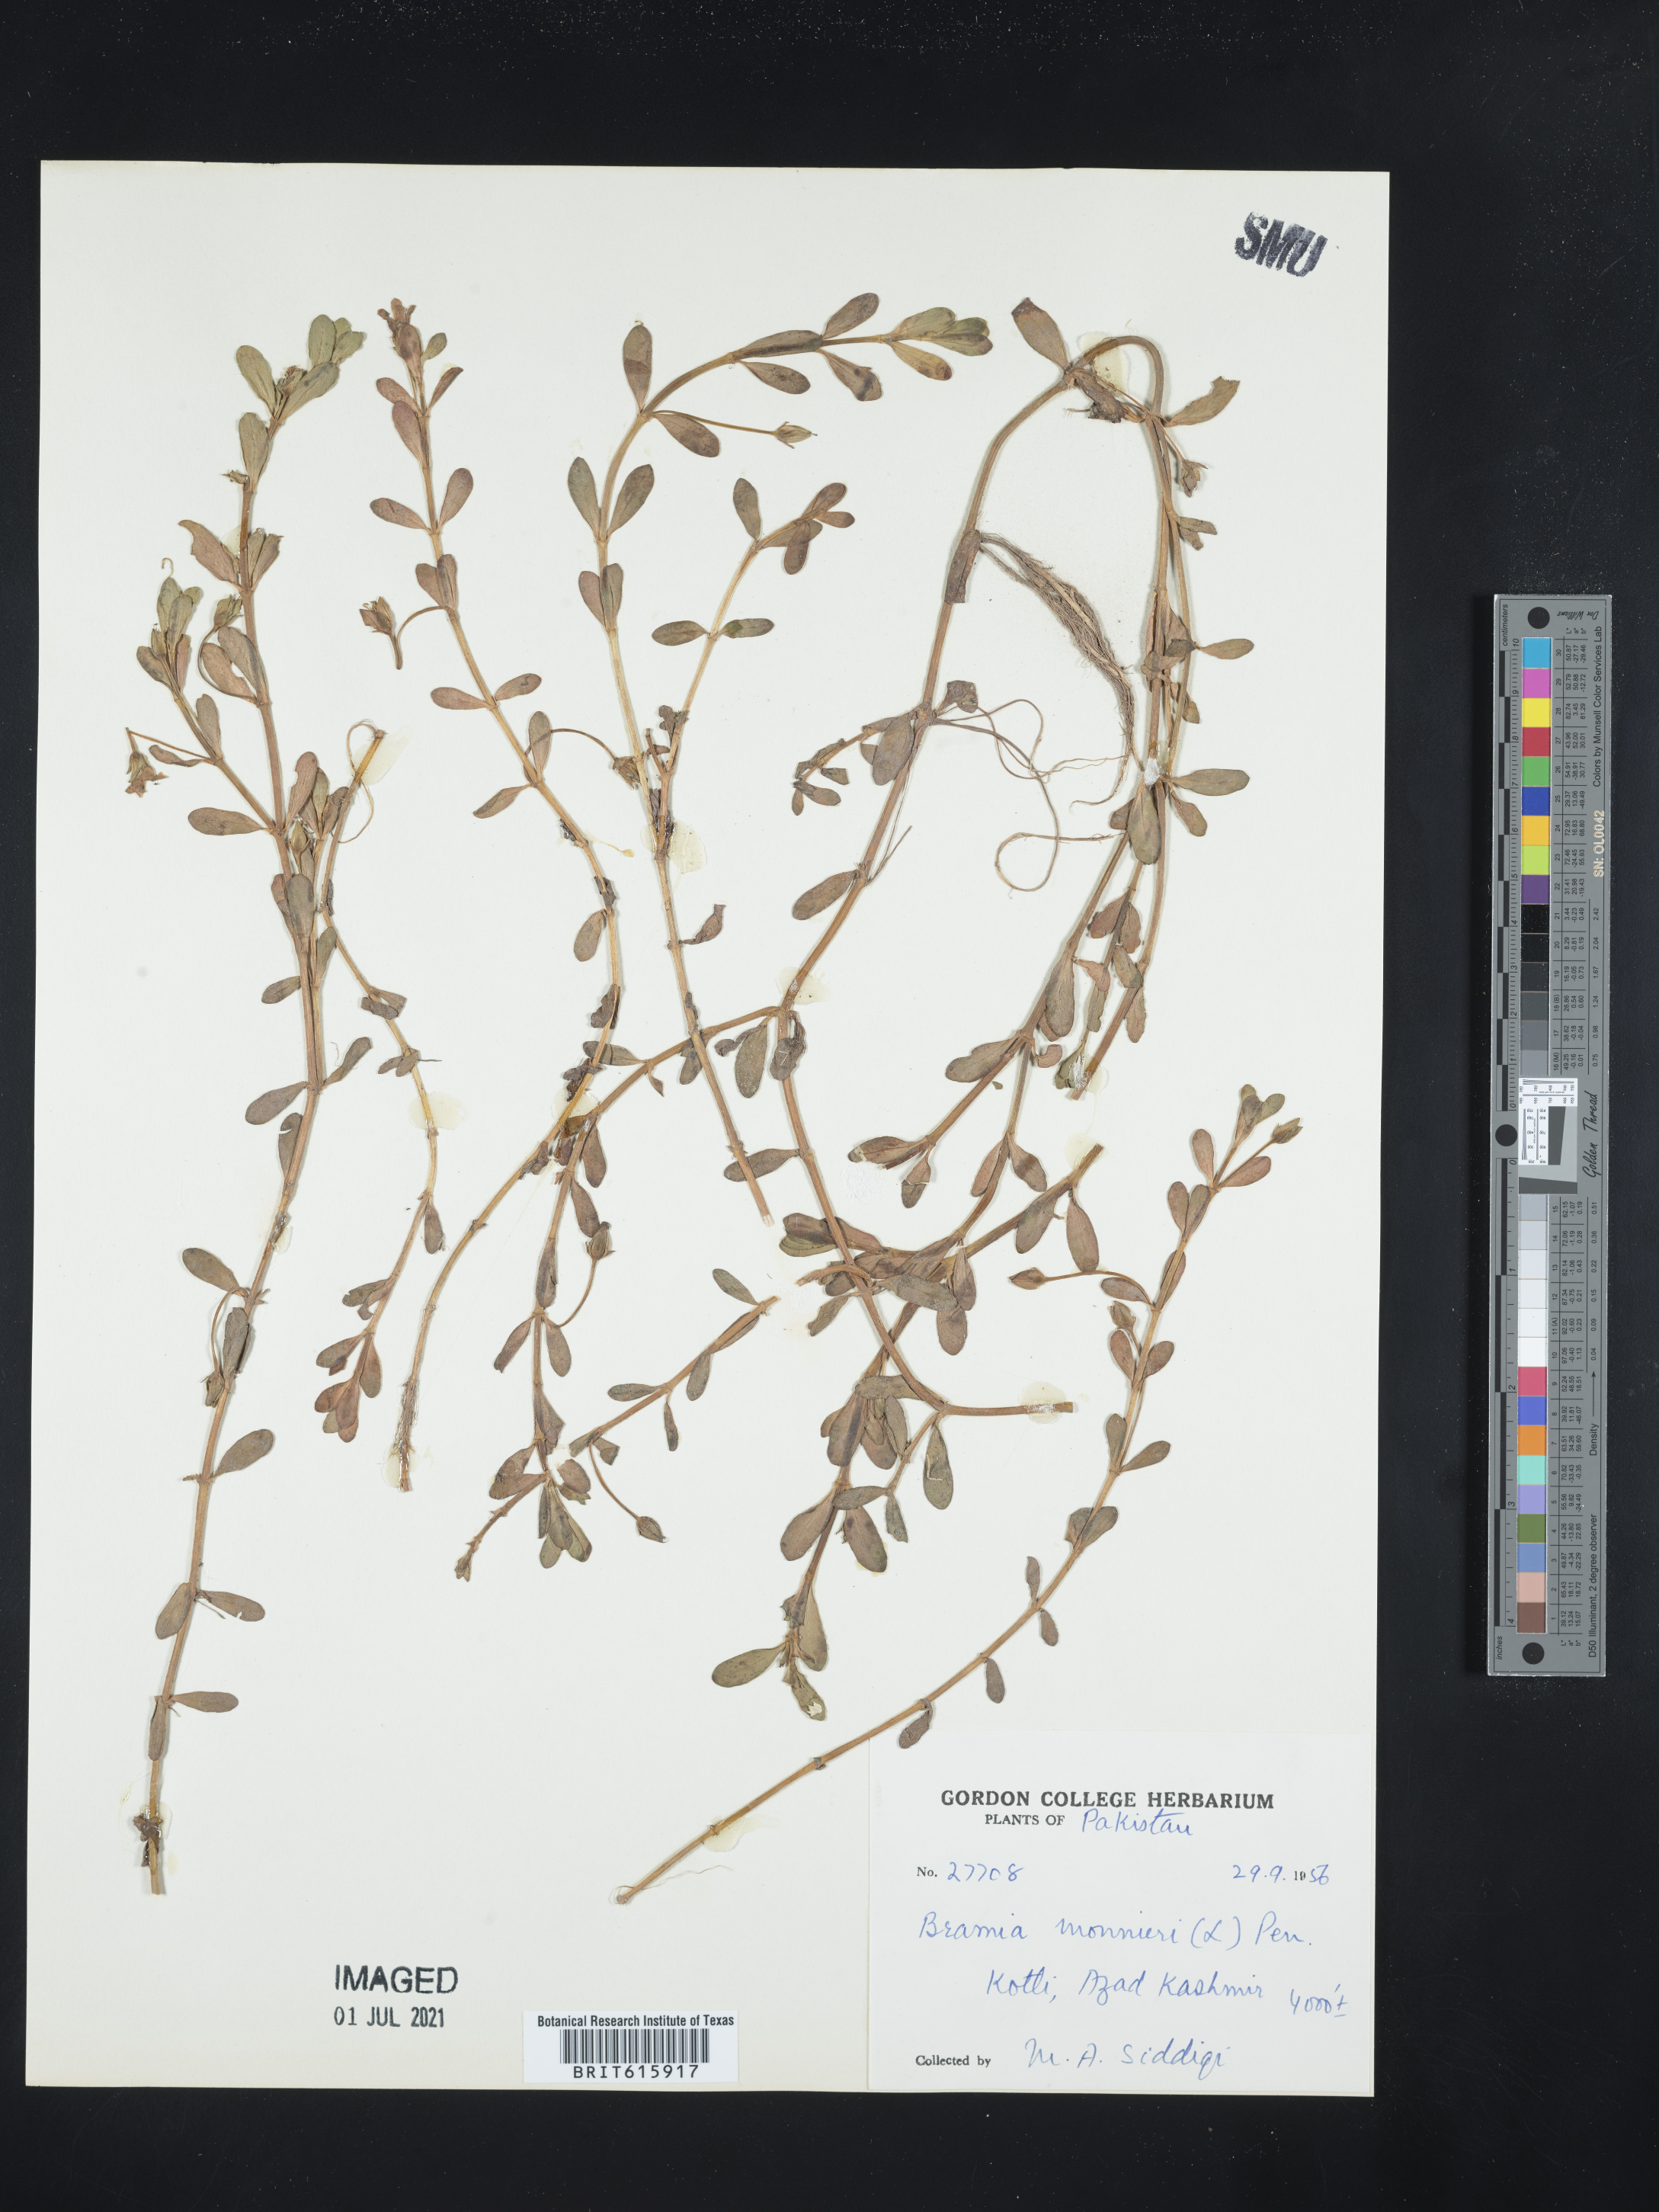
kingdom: Plantae
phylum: Tracheophyta
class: Magnoliopsida
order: Lamiales
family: Plantaginaceae
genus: Bacopa
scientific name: Bacopa monnieri
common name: Indian-pennywort
